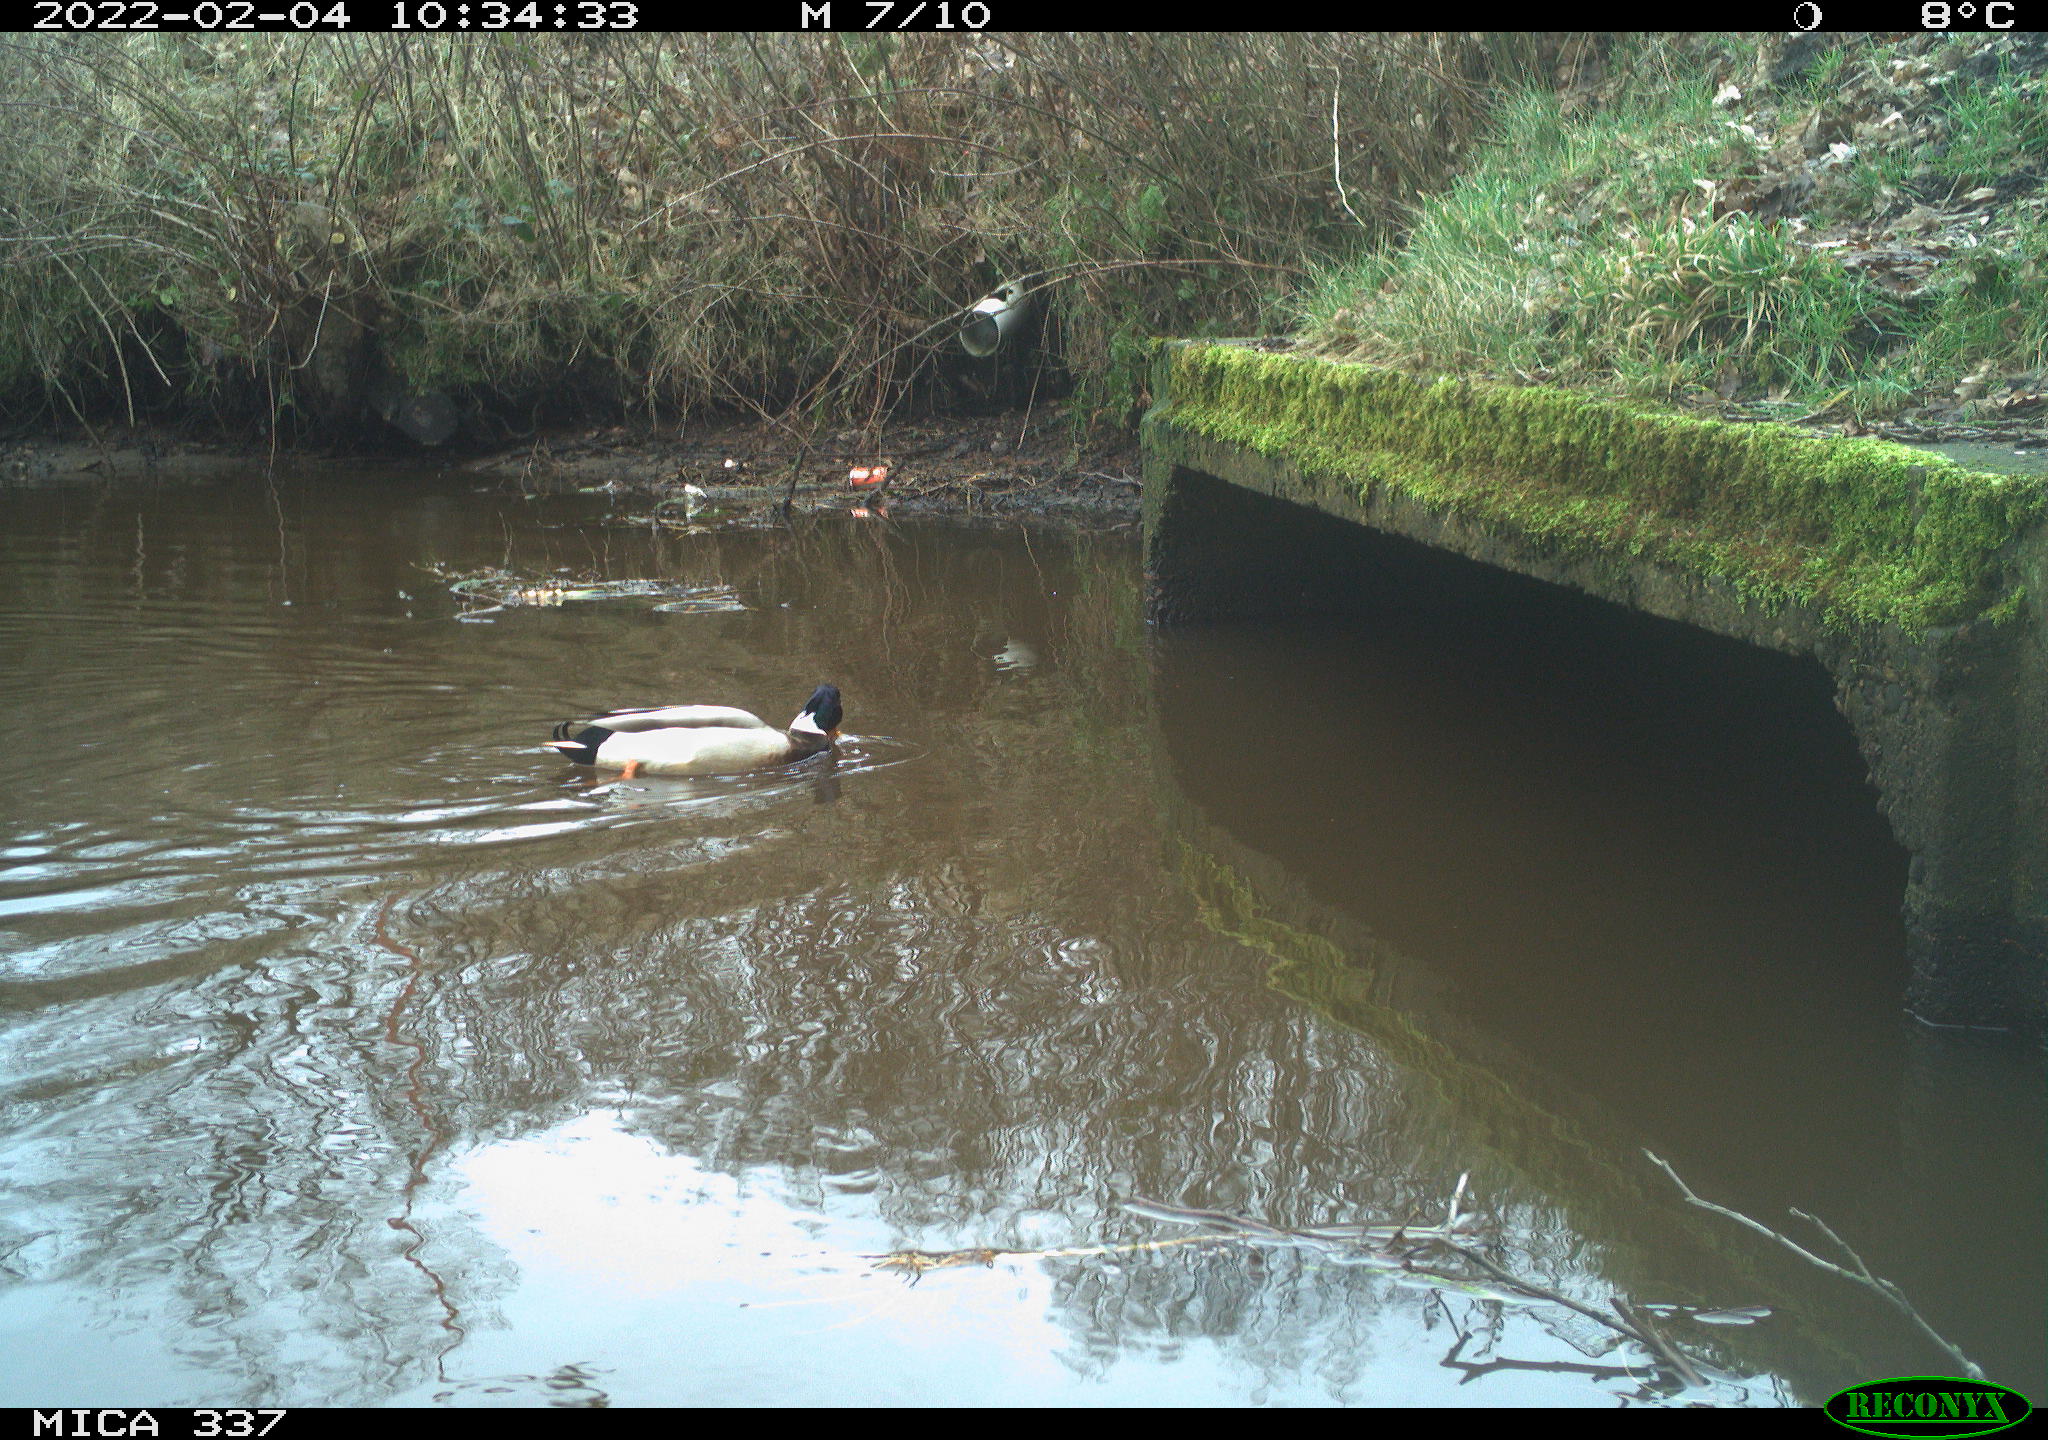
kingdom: Animalia
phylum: Chordata
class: Aves
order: Anseriformes
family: Anatidae
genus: Anas
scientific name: Anas platyrhynchos
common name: Mallard
